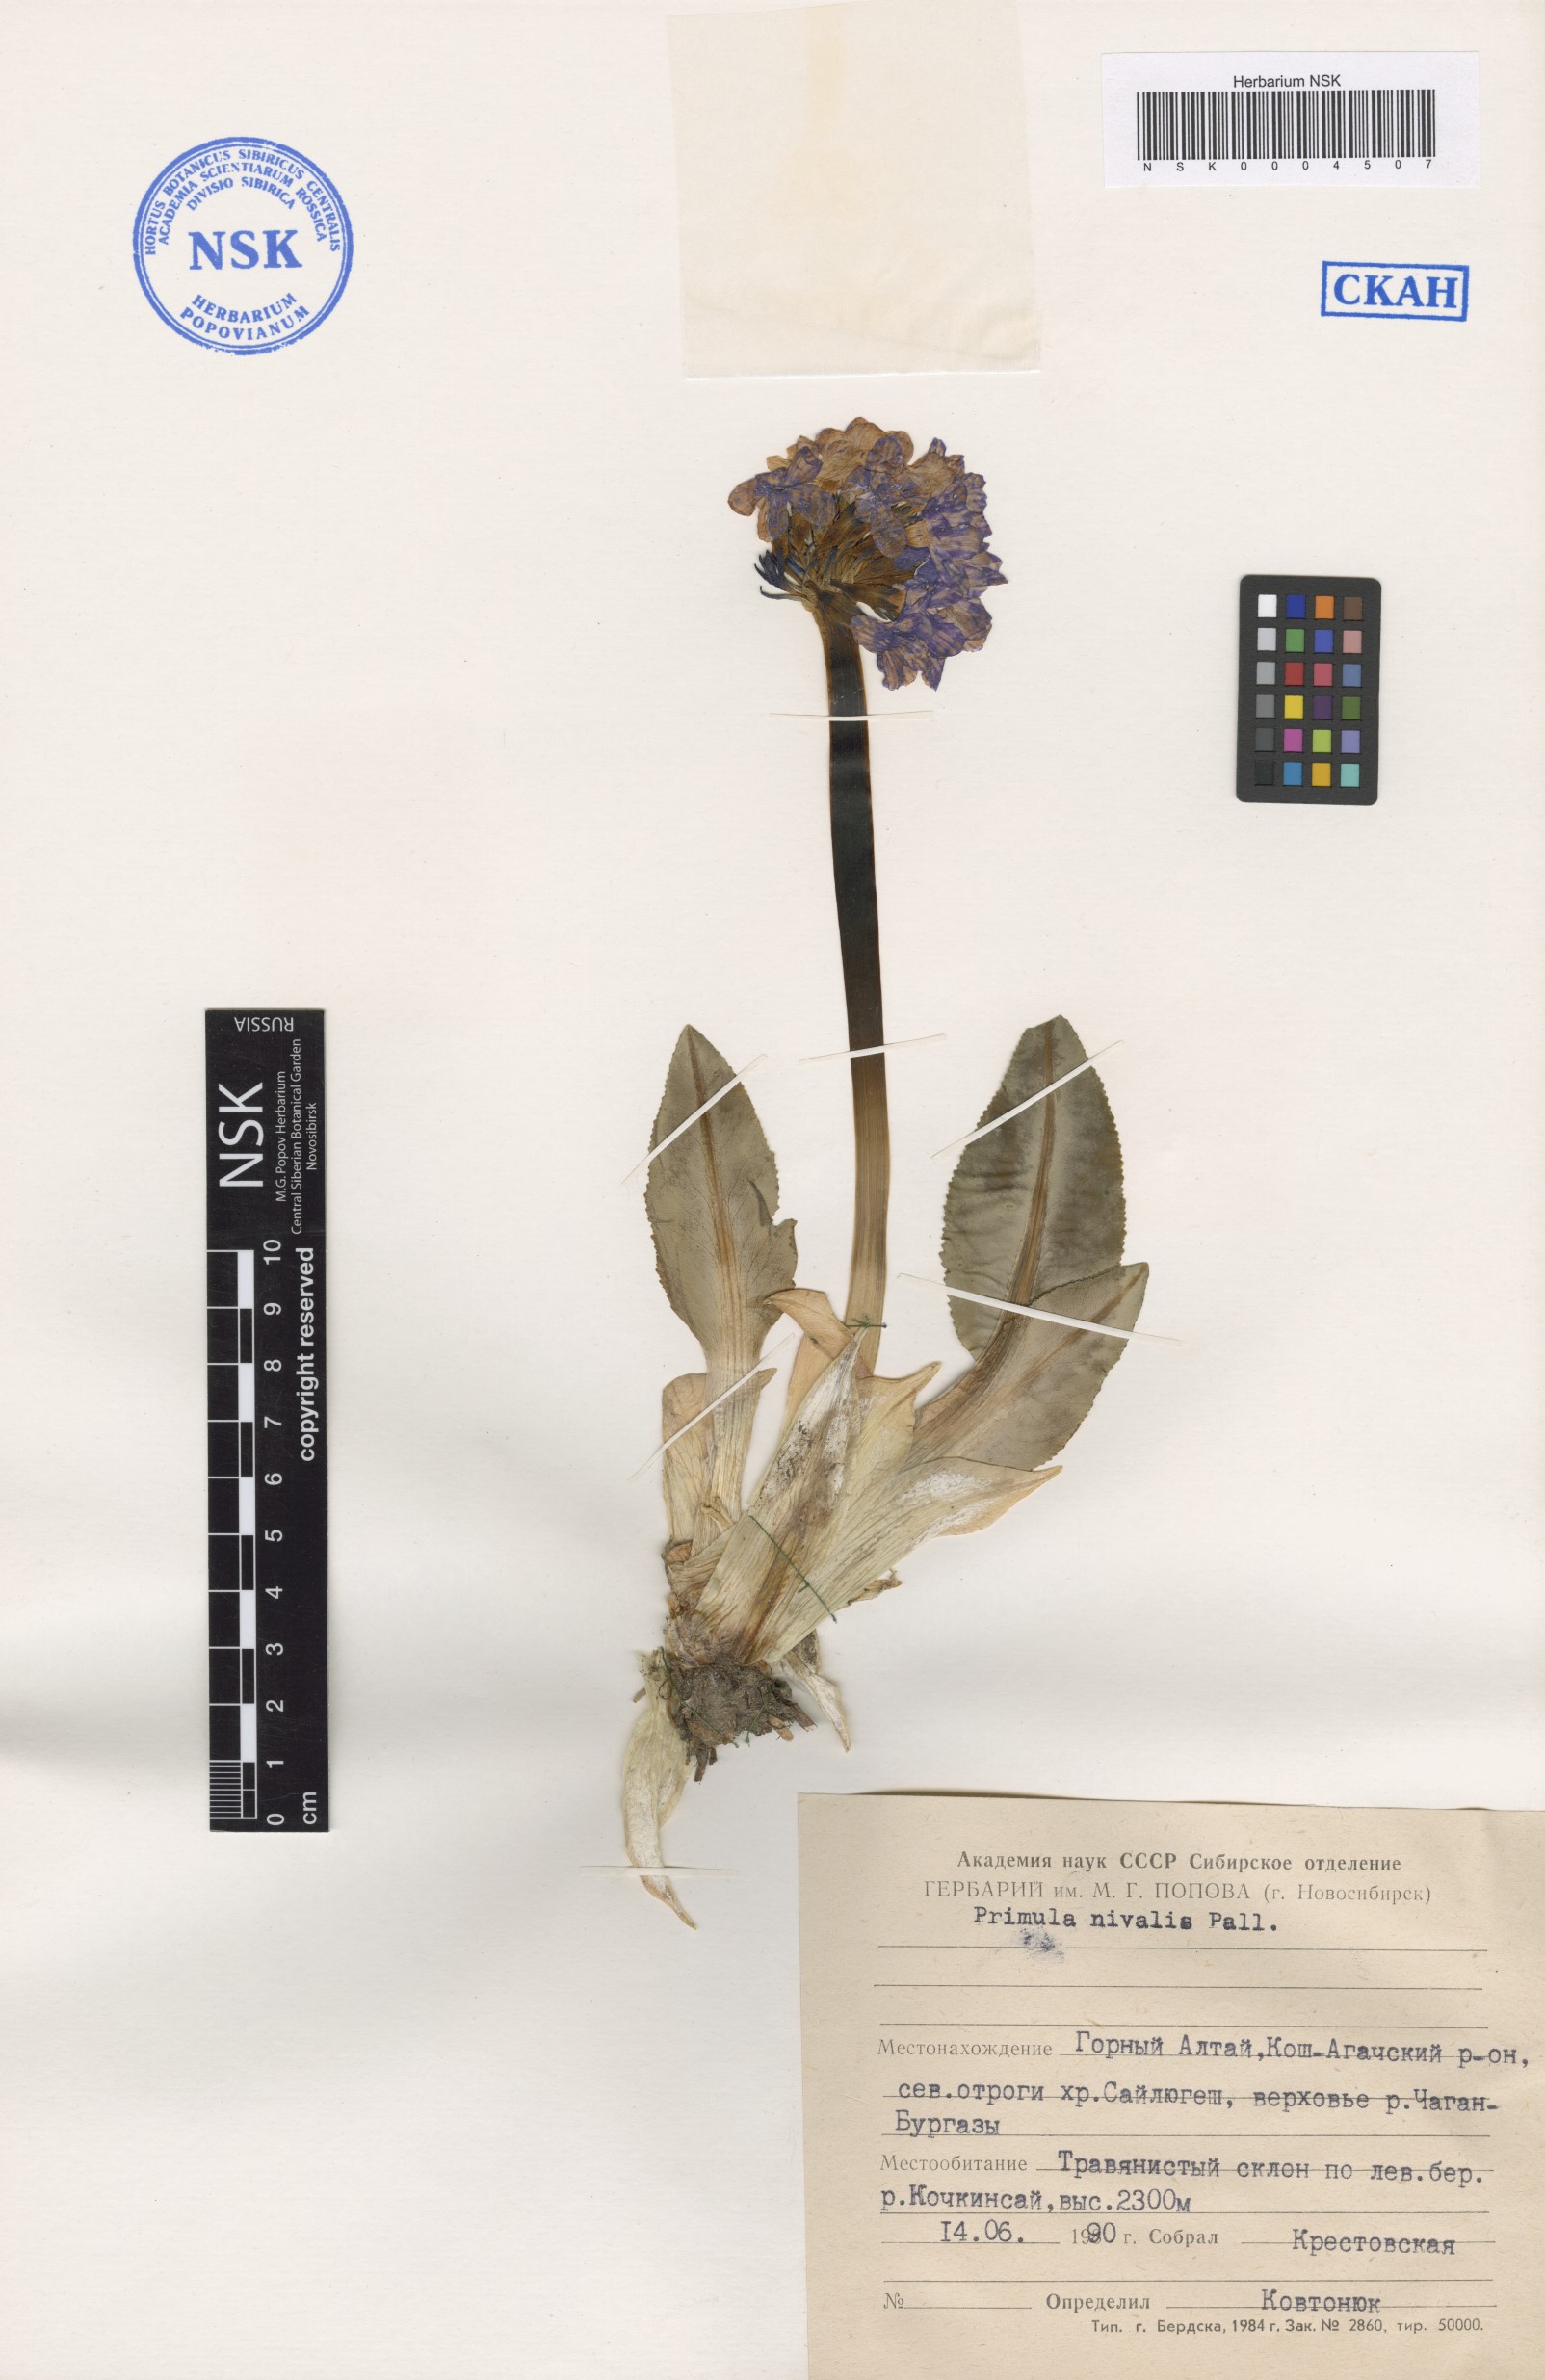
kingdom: Plantae
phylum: Tracheophyta
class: Magnoliopsida
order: Ericales
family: Primulaceae
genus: Primula
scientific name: Primula nivalis
